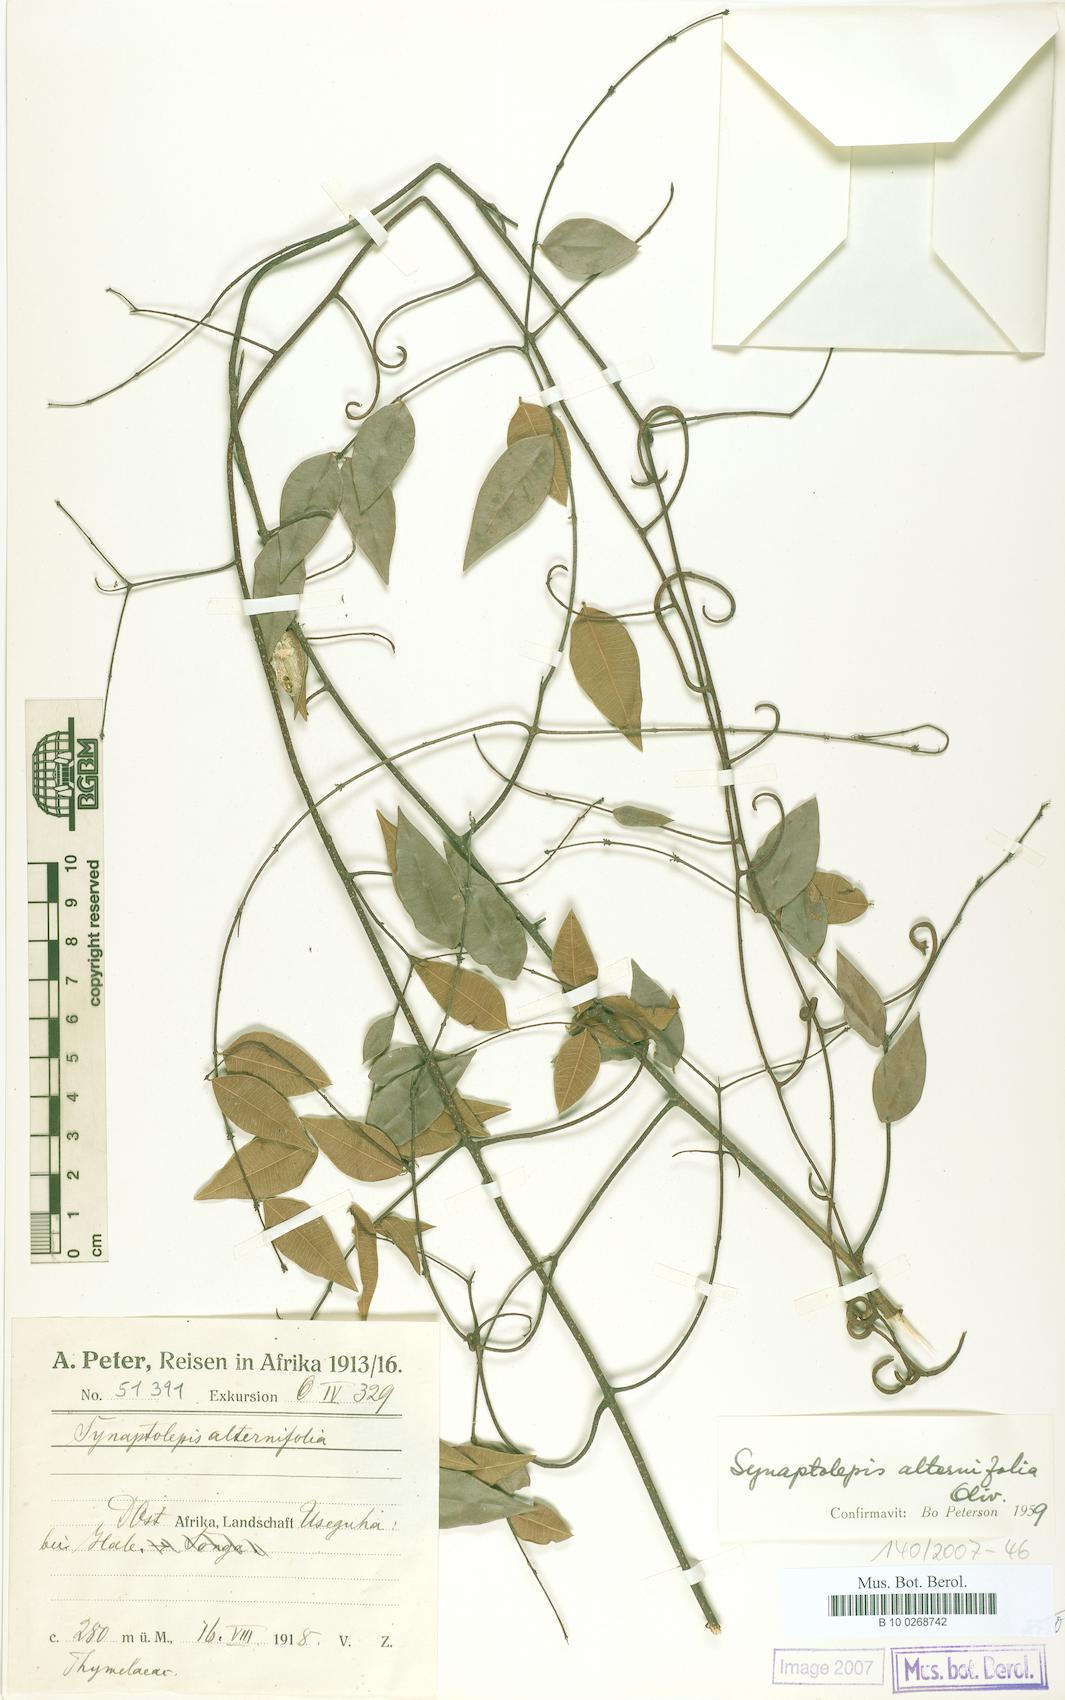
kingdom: Plantae
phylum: Tracheophyta
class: Magnoliopsida
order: Malvales
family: Thymelaeaceae
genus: Synaptolepis
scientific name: Synaptolepis alternifolia
